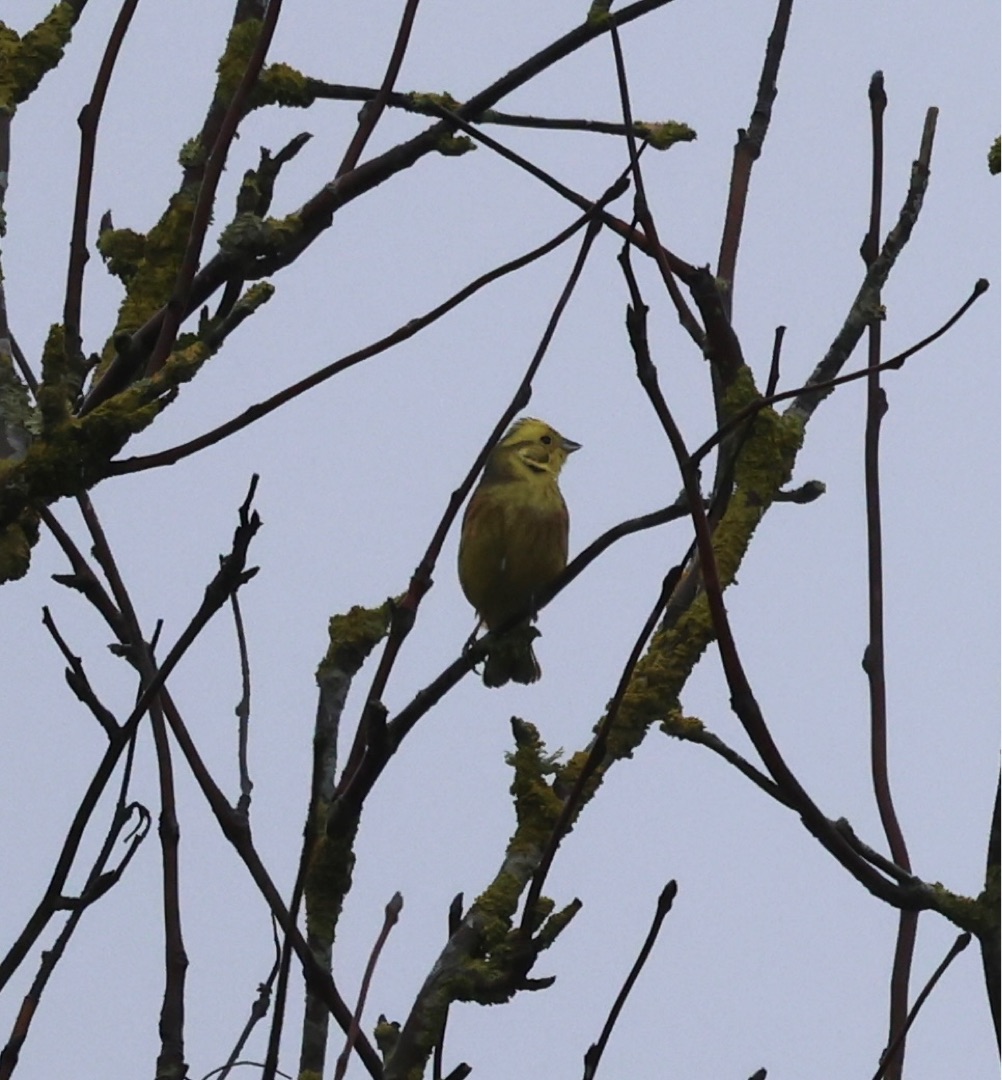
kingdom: Animalia
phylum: Chordata
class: Aves
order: Passeriformes
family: Emberizidae
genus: Emberiza
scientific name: Emberiza citrinella
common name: Gulspurv
